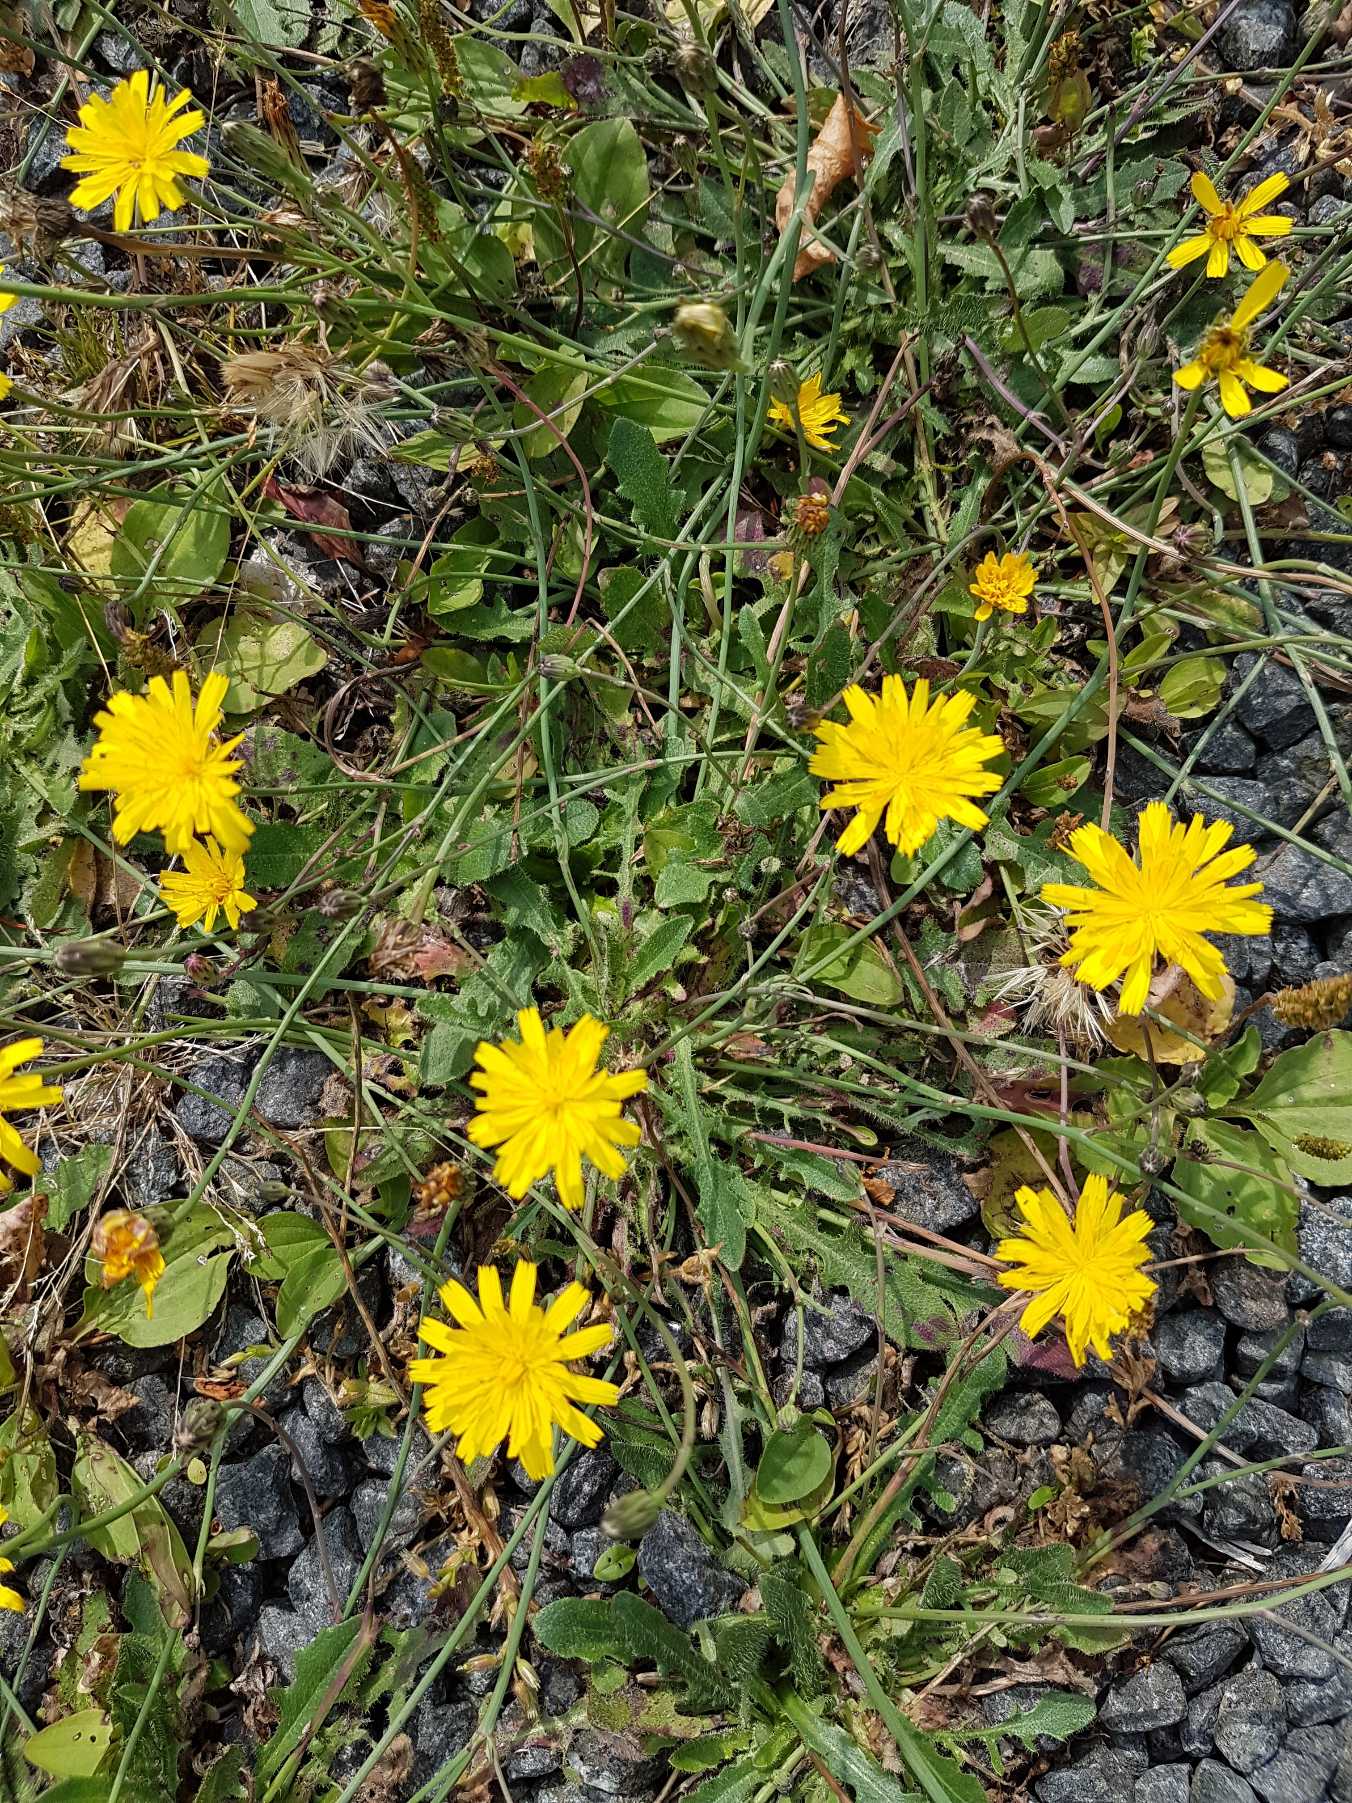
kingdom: Plantae
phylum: Tracheophyta
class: Magnoliopsida
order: Asterales
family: Asteraceae
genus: Hypochaeris
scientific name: Hypochaeris radicata
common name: Almindelig kongepen
